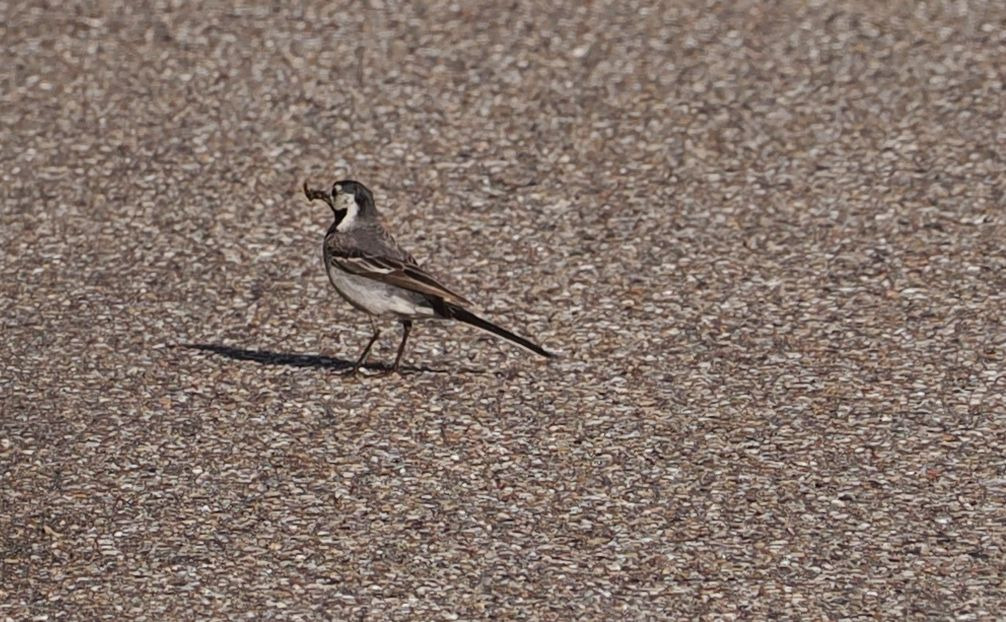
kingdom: Animalia
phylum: Chordata
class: Aves
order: Passeriformes
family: Motacillidae
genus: Motacilla
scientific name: Motacilla alba
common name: Hvid vipstjert
